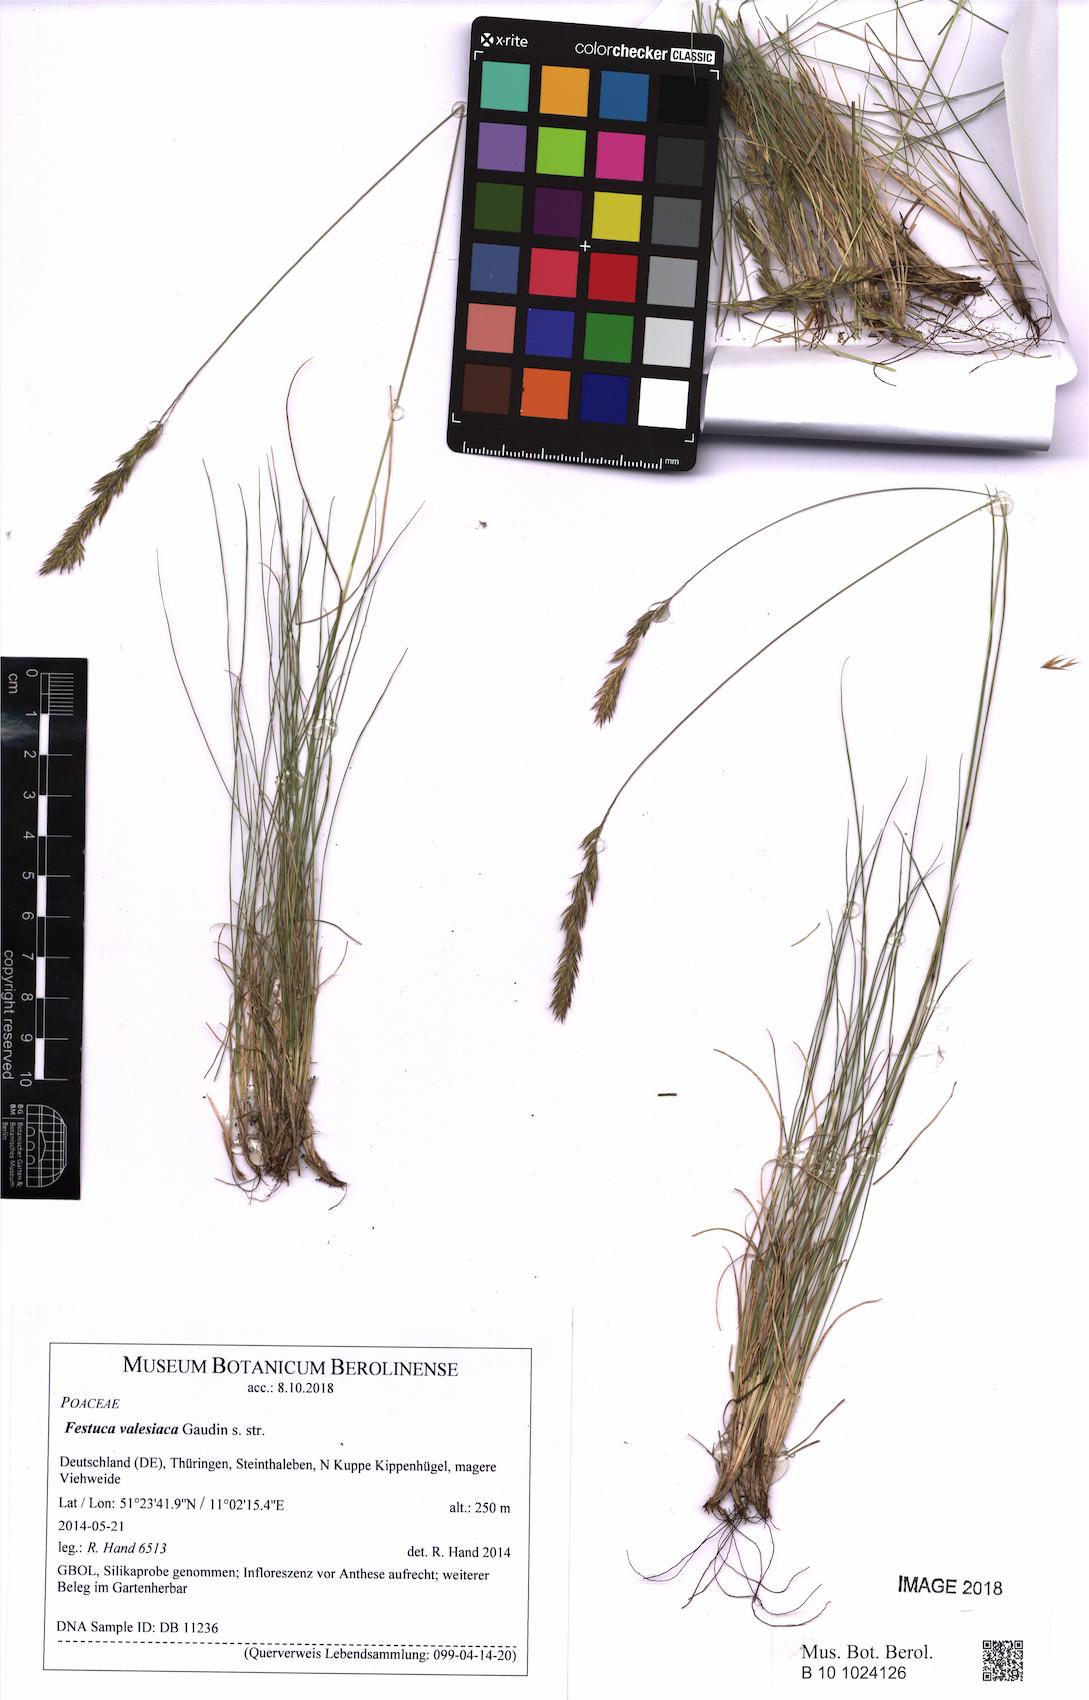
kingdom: Plantae
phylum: Tracheophyta
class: Liliopsida
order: Poales
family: Poaceae
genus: Festuca
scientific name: Festuca valesiaca
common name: Volga fescue
